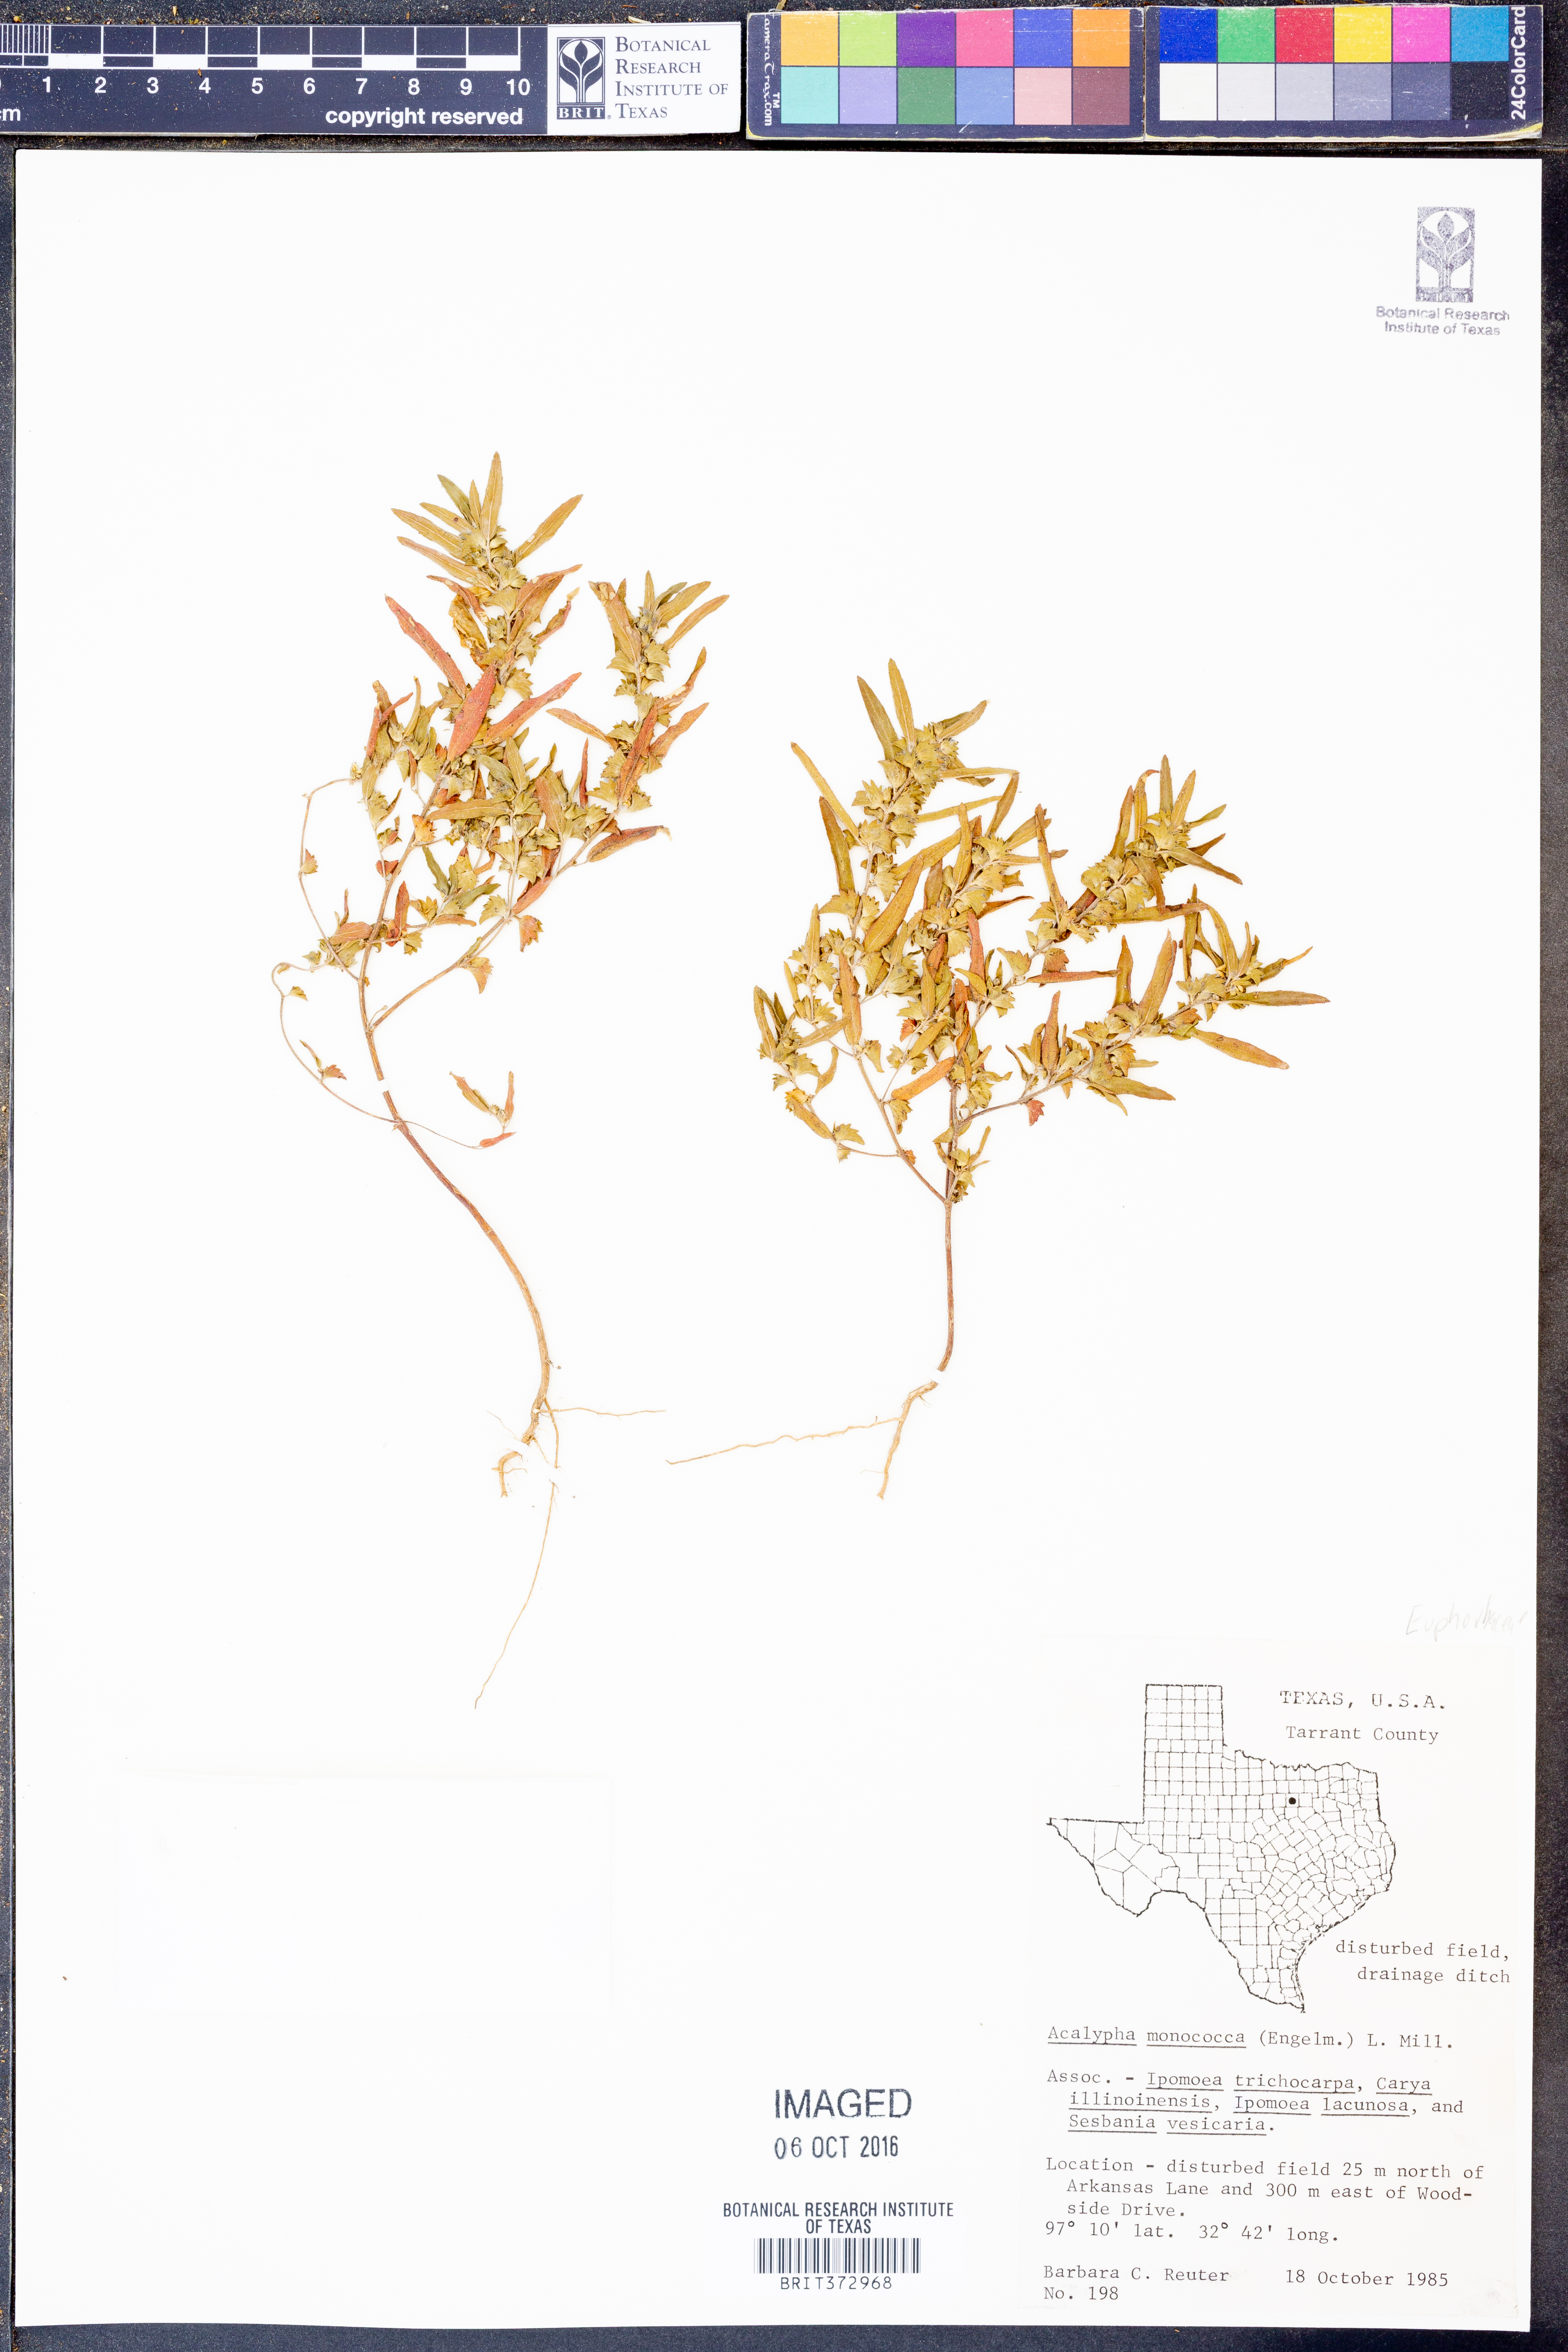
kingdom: Plantae
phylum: Tracheophyta
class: Magnoliopsida
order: Malpighiales
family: Euphorbiaceae
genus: Acalypha
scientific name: Acalypha monococca
